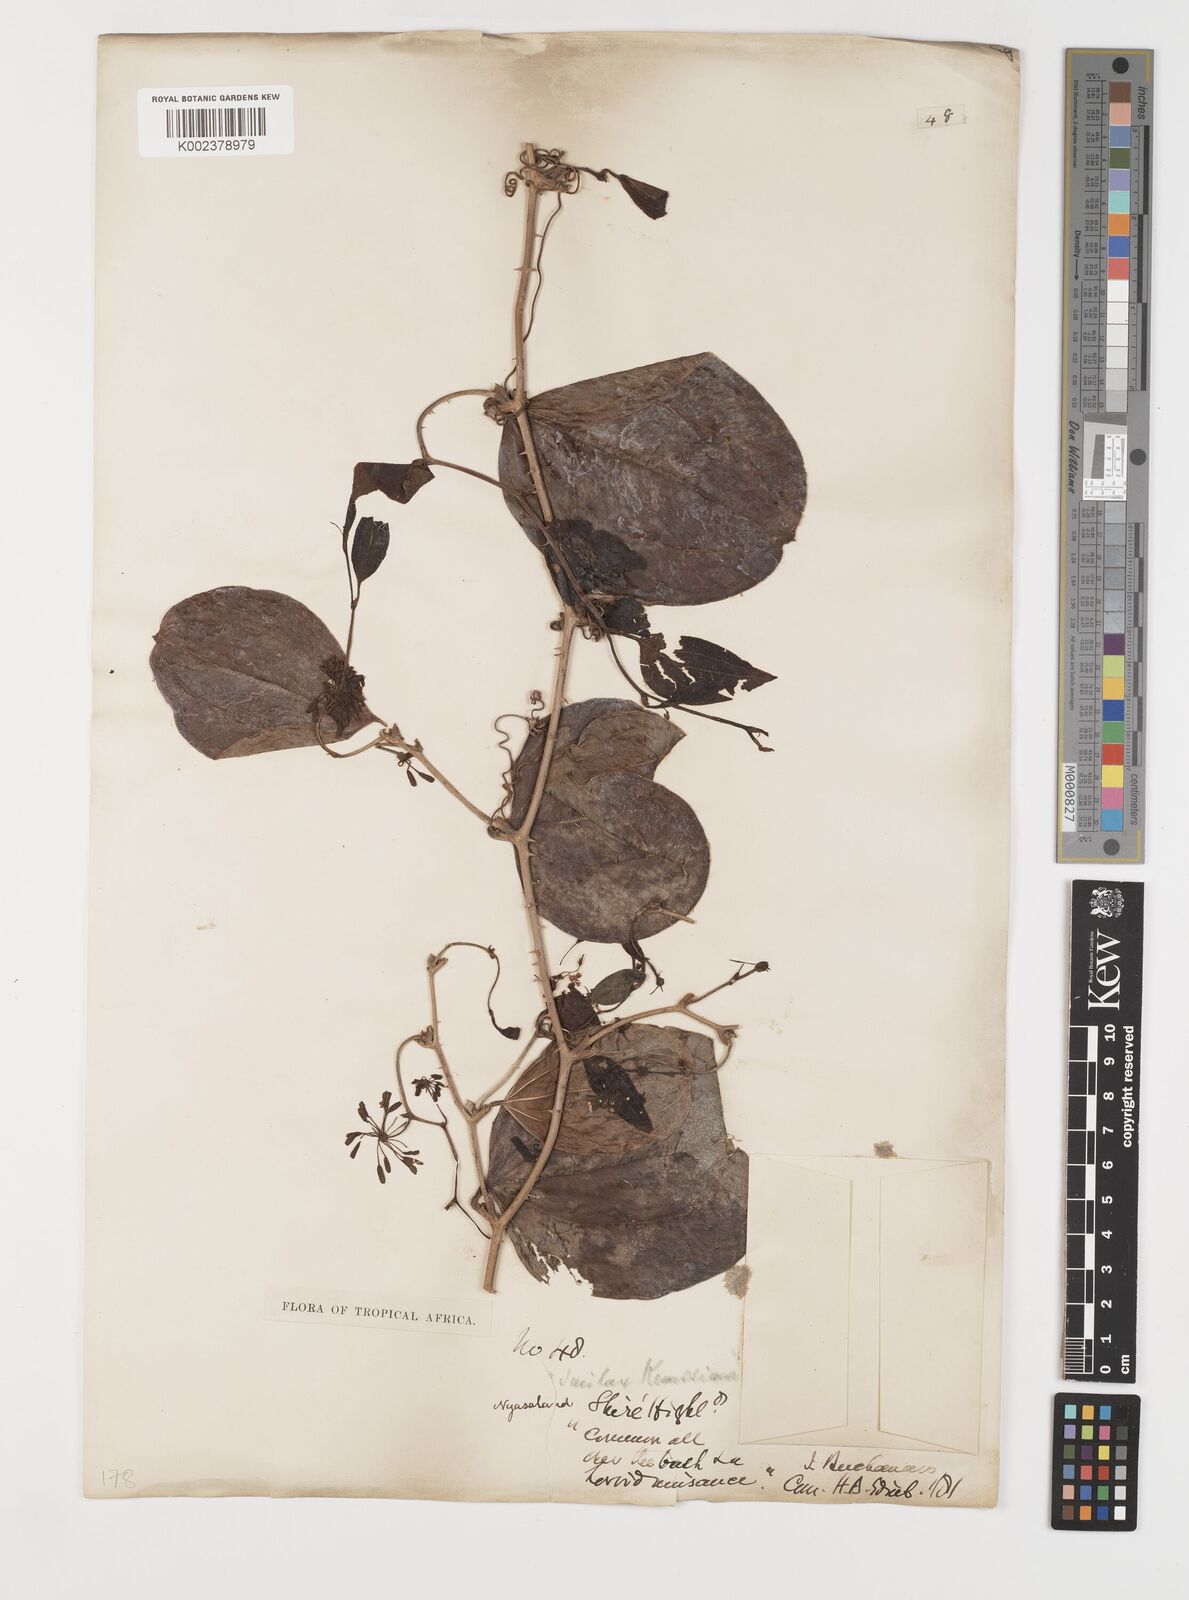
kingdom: Plantae
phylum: Tracheophyta
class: Liliopsida
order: Liliales
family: Smilacaceae
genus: Smilax
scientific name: Smilax anceps
